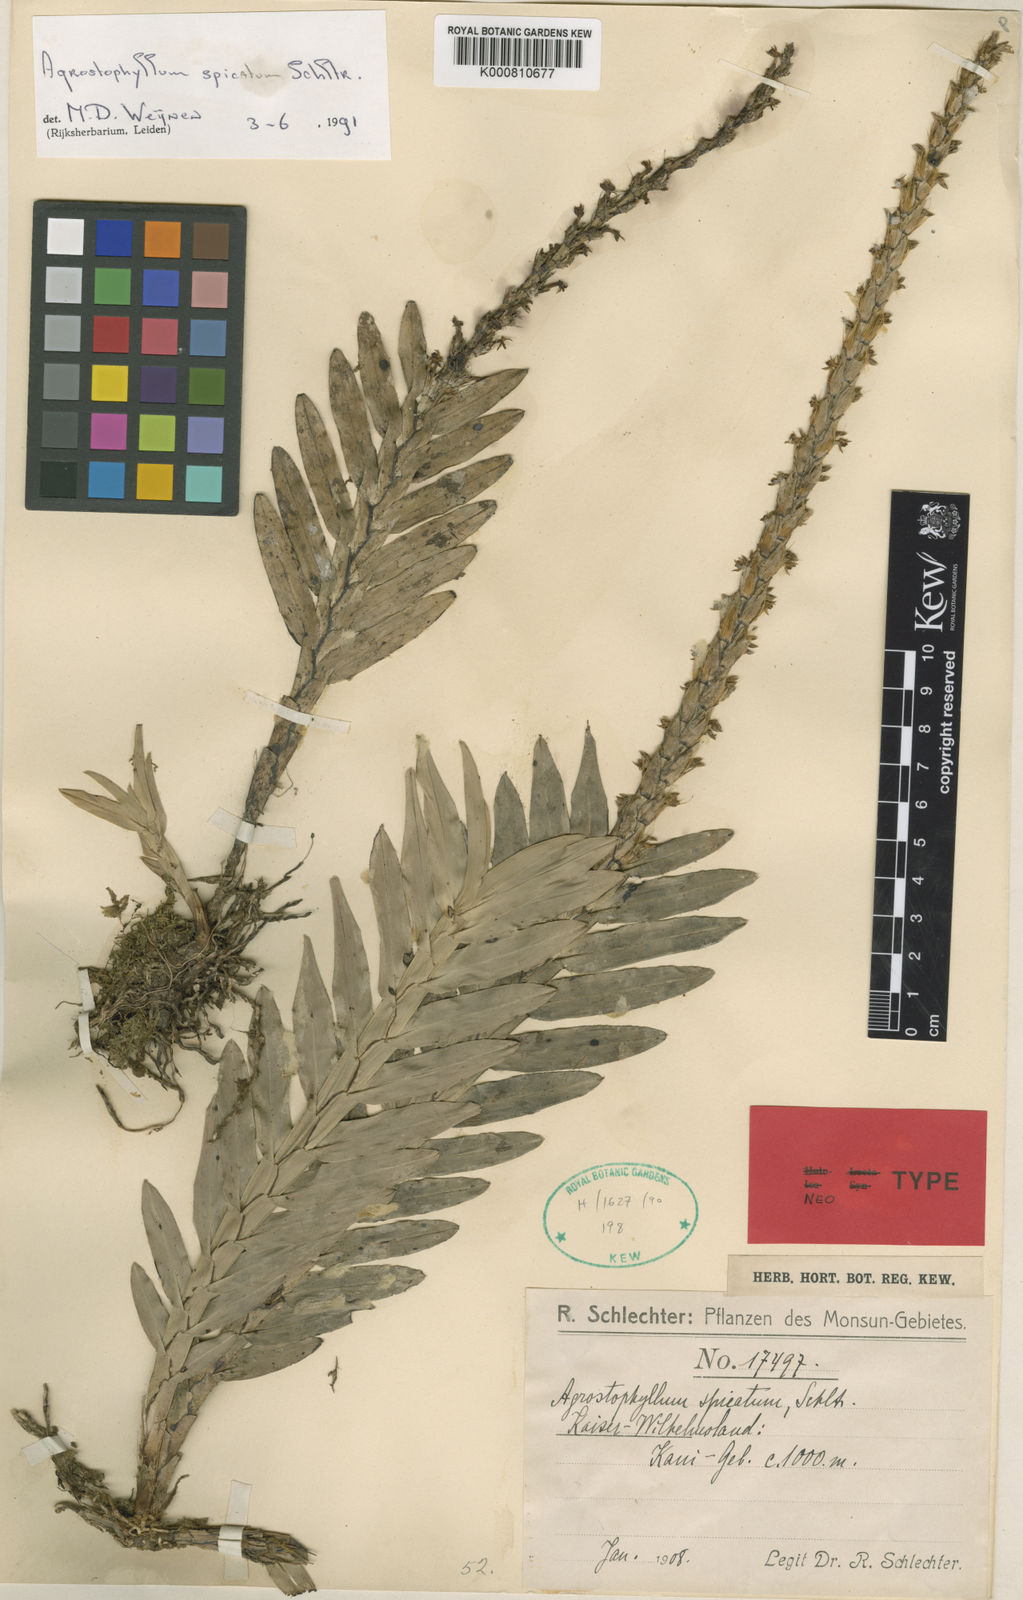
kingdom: Plantae
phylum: Tracheophyta
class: Liliopsida
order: Asparagales
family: Orchidaceae
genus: Agrostophyllum
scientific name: Agrostophyllum spicatum
